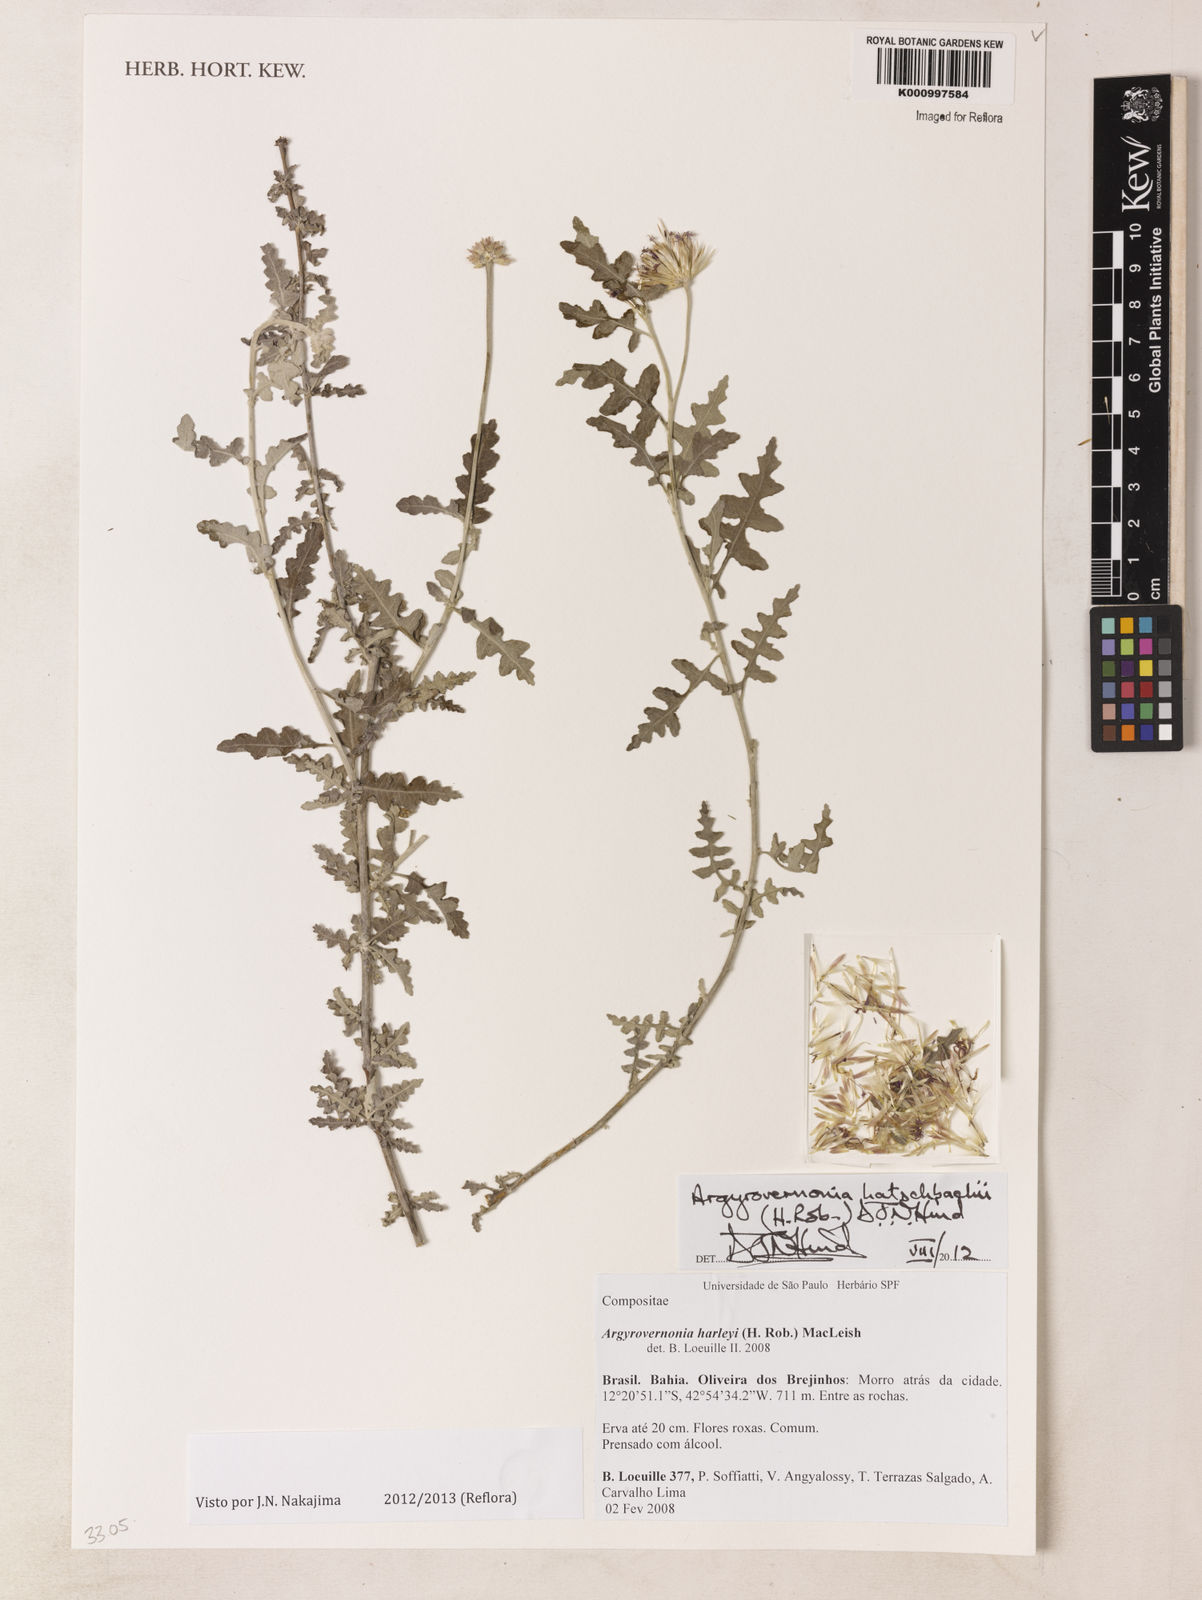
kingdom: Plantae
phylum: Tracheophyta
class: Magnoliopsida
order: Asterales
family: Asteraceae
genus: Chresta
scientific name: Chresta
